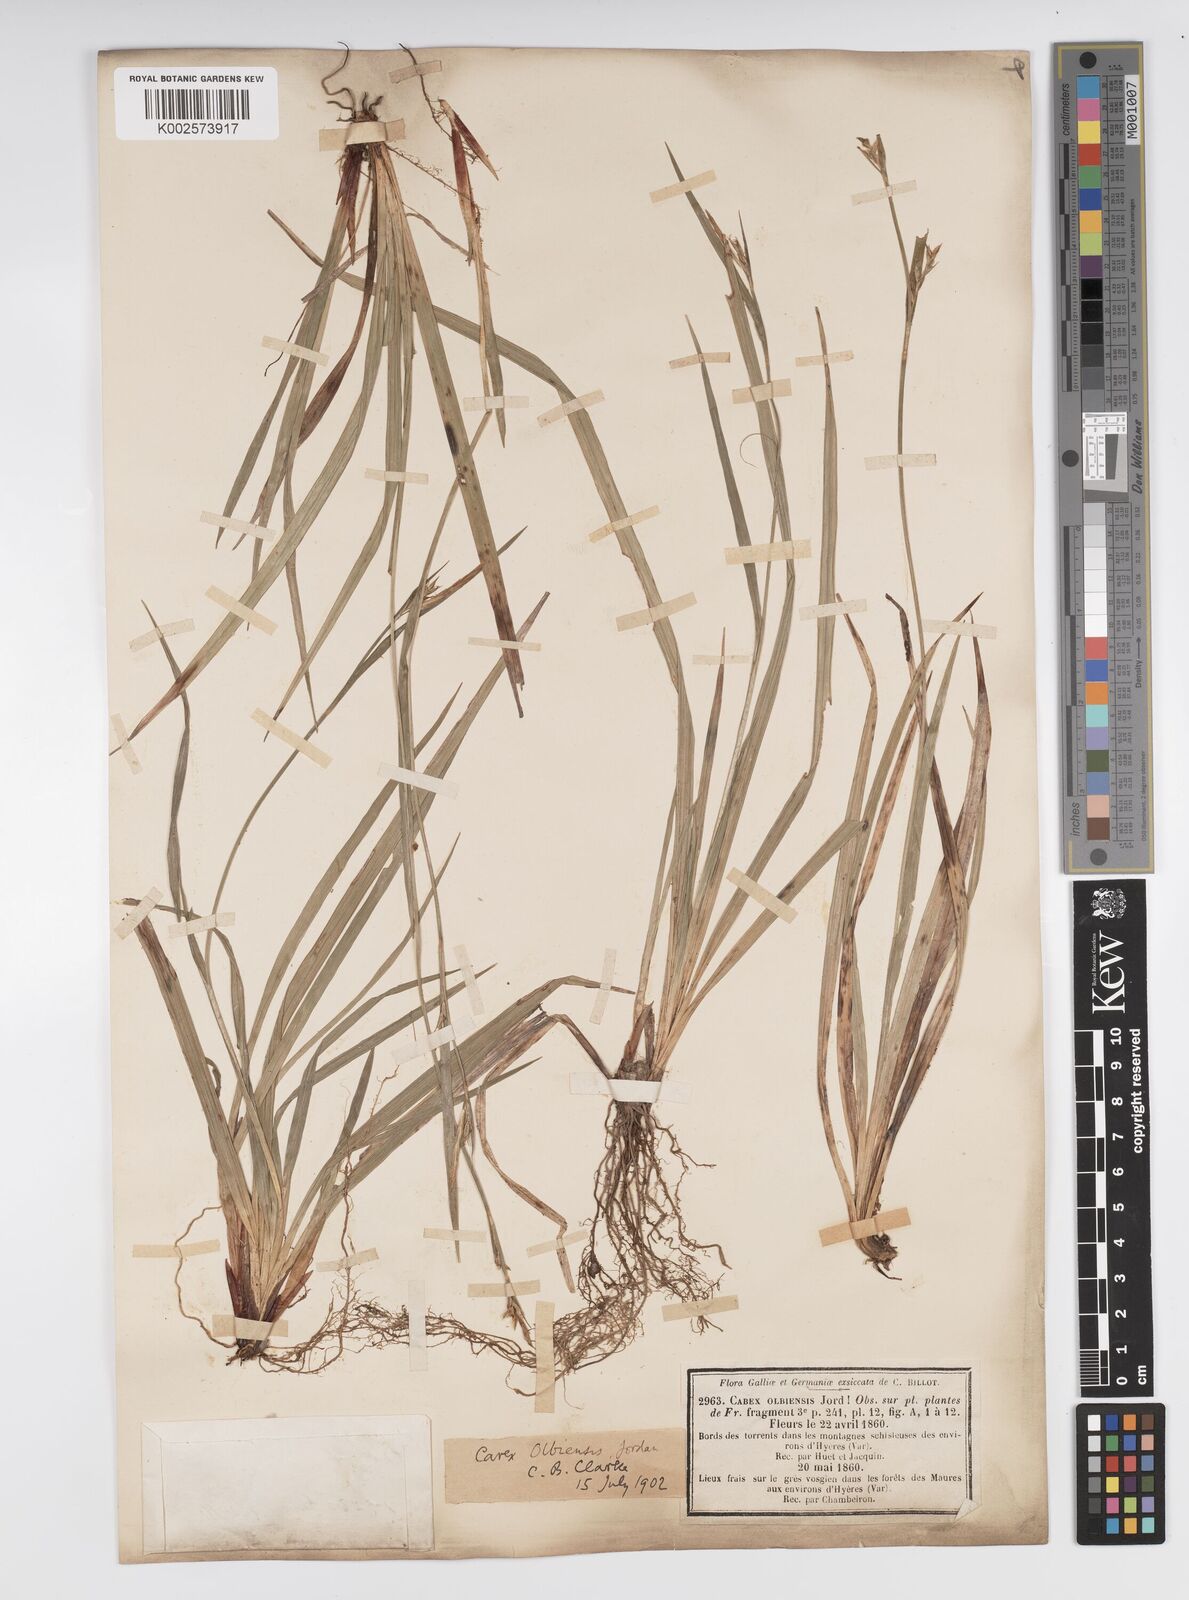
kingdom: Plantae
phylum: Tracheophyta
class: Liliopsida
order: Poales
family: Cyperaceae
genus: Carex
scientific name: Carex olbiensis
